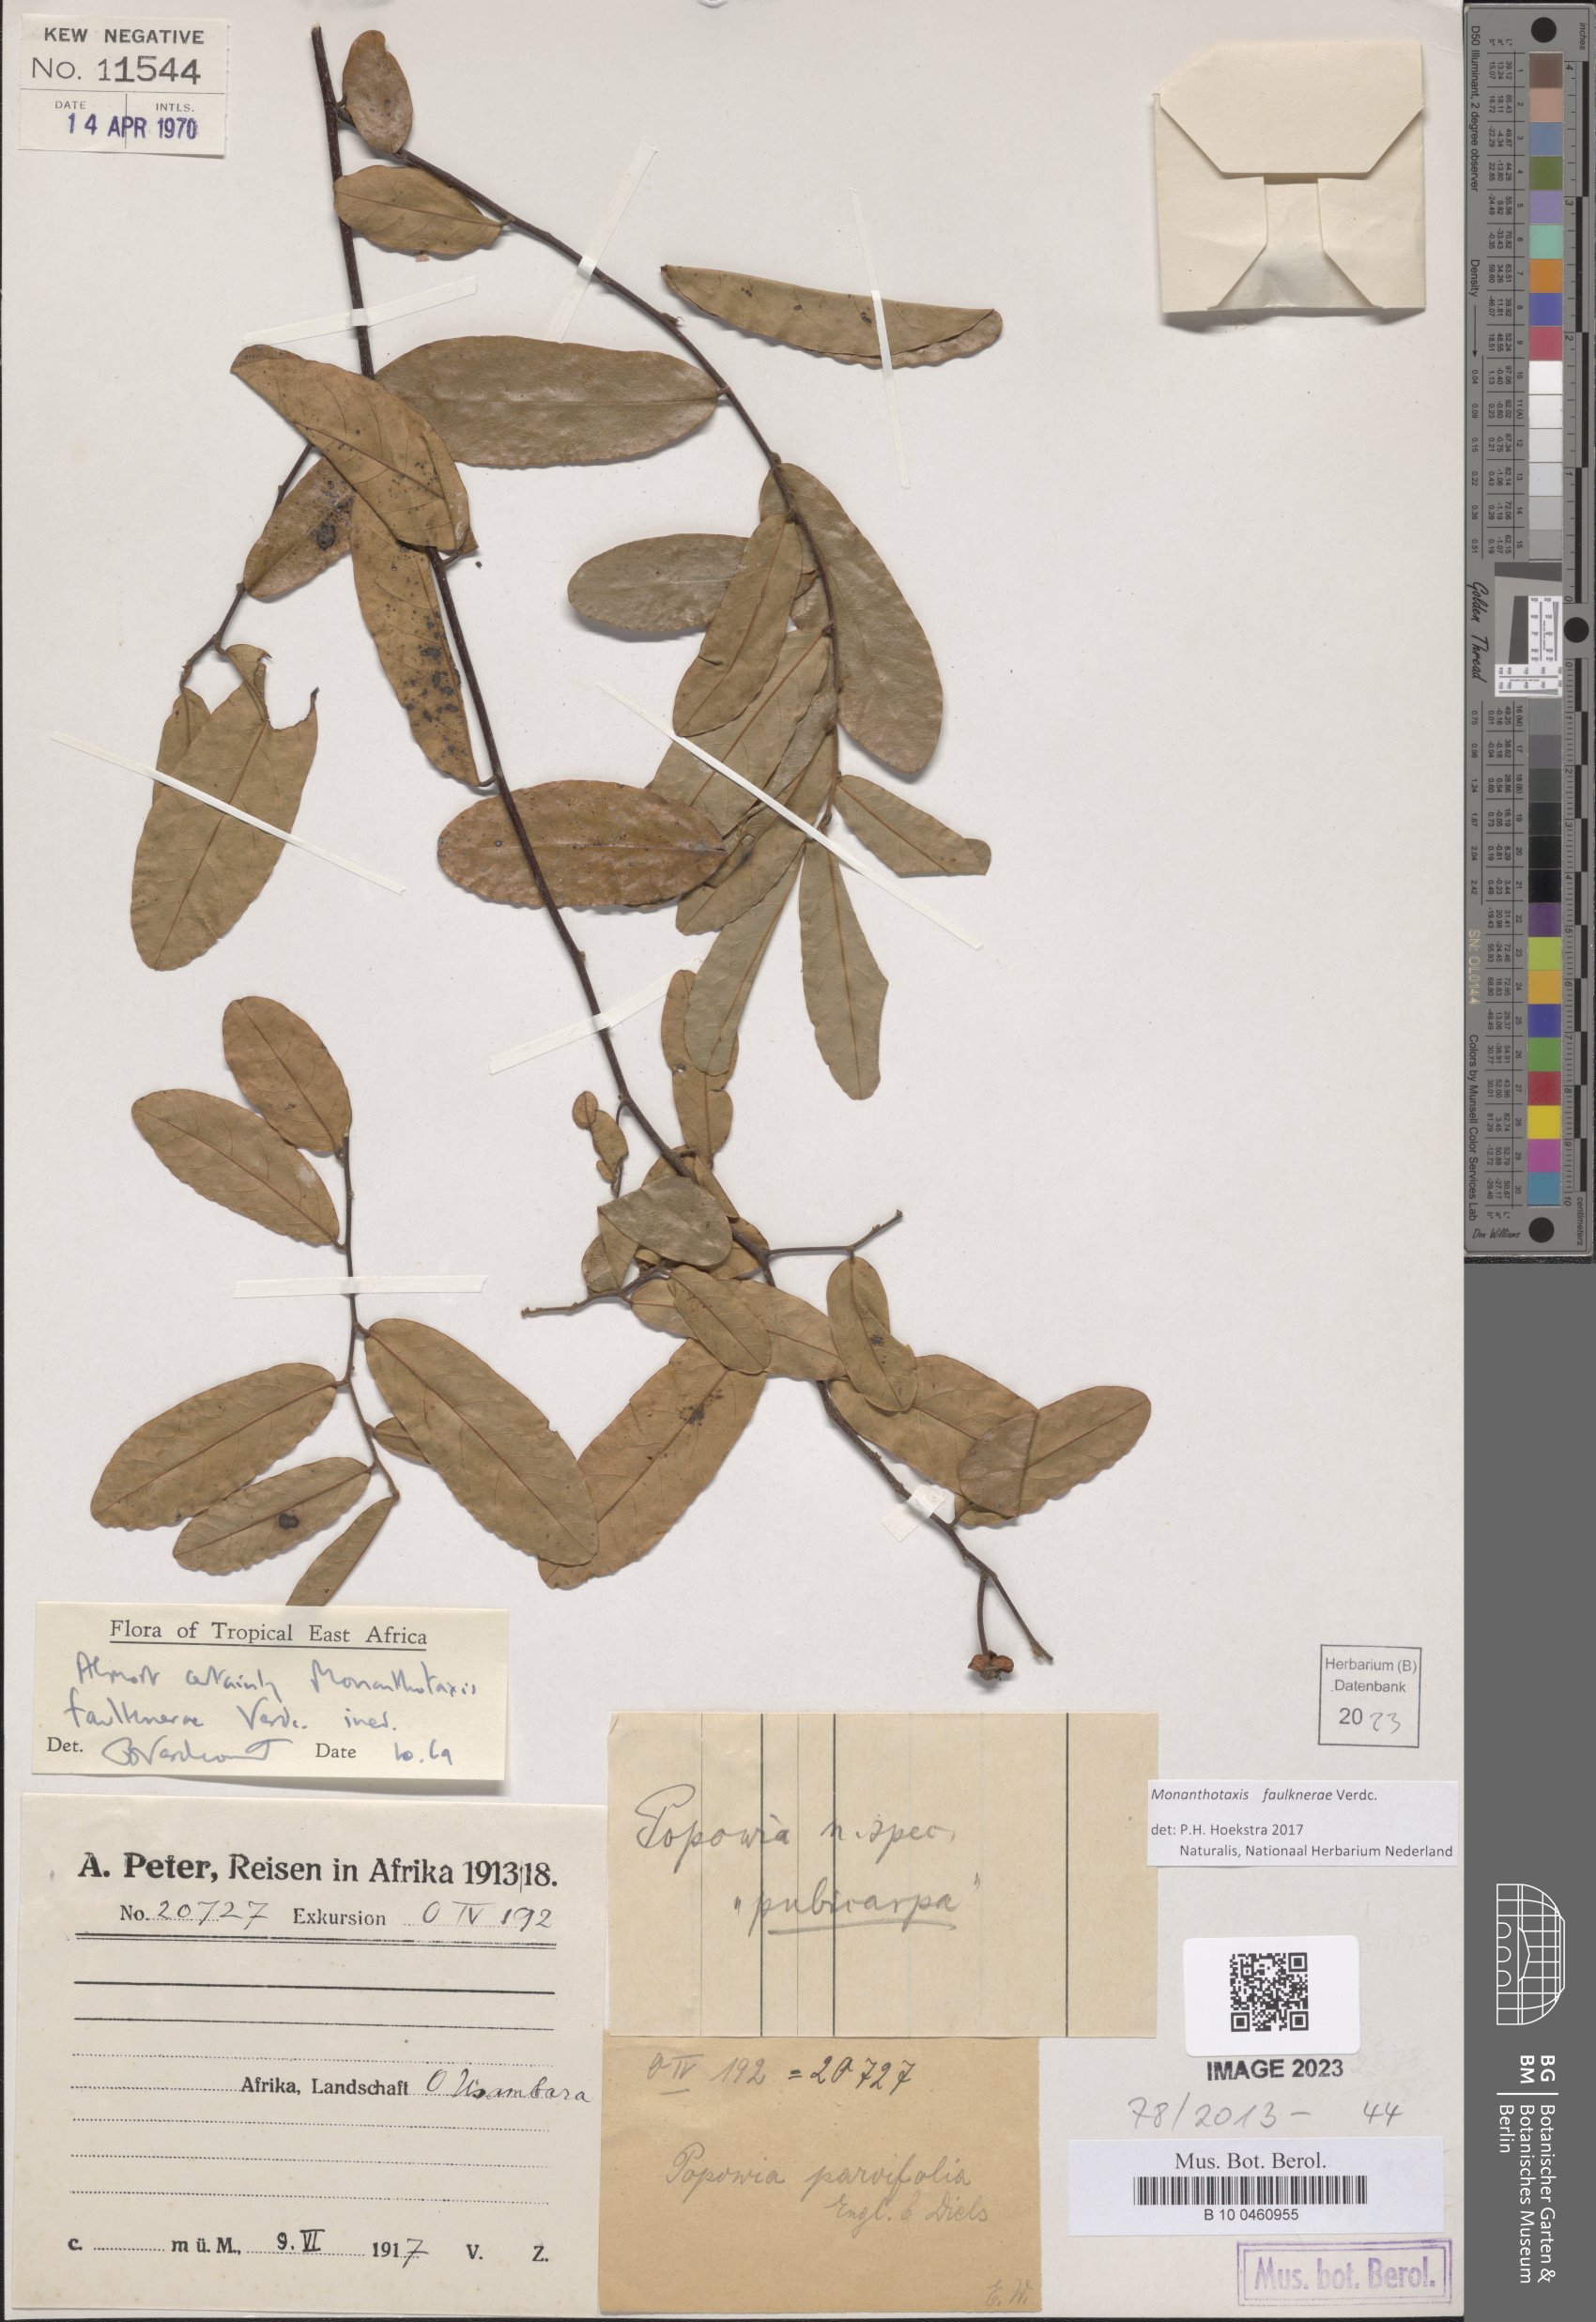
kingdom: Plantae
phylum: Tracheophyta
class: Magnoliopsida
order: Magnoliales
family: Annonaceae
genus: Monanthotaxis
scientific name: Monanthotaxis faulknerae
